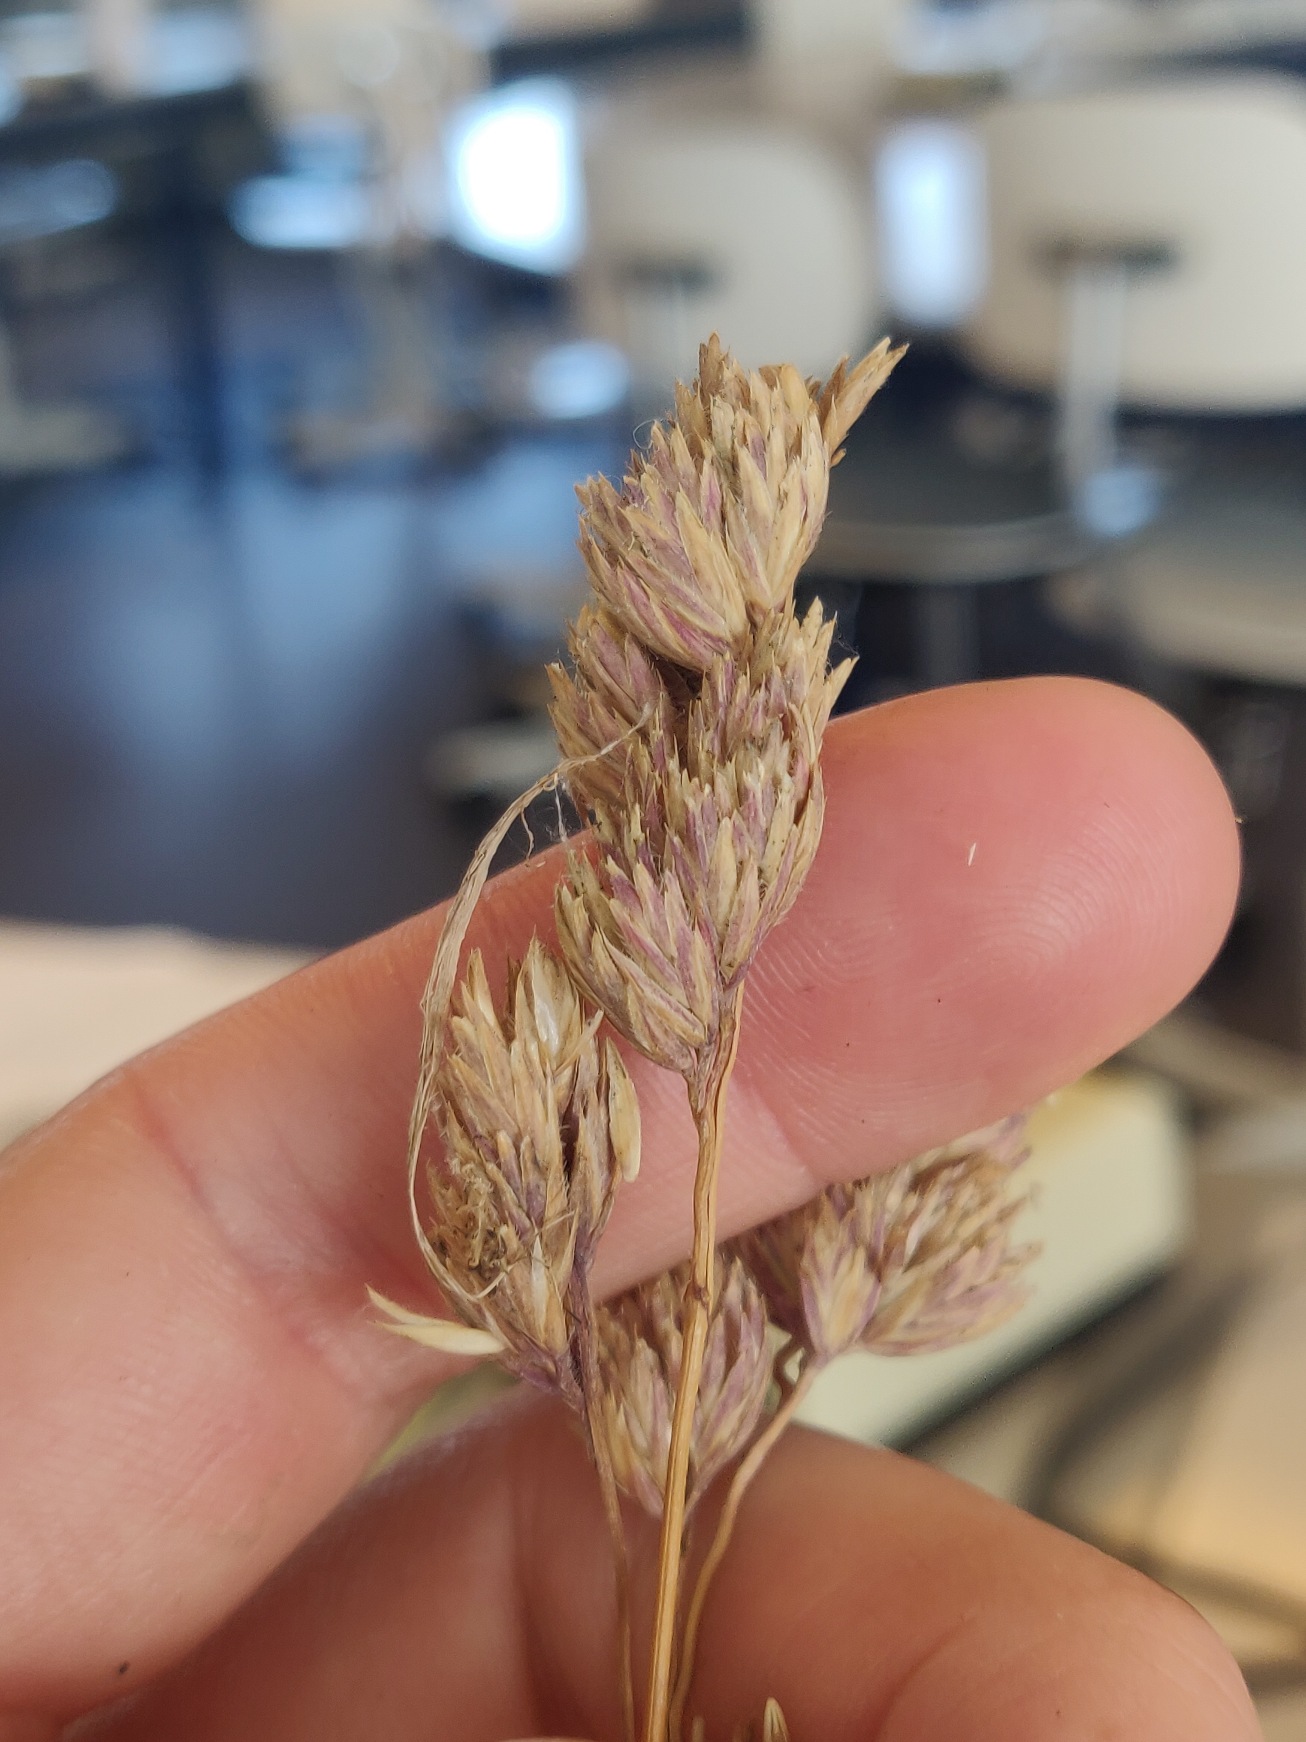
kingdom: Plantae
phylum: Tracheophyta
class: Liliopsida
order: Poales
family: Poaceae
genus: Dactylis
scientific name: Dactylis glomerata
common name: Almindelig hundegræs
